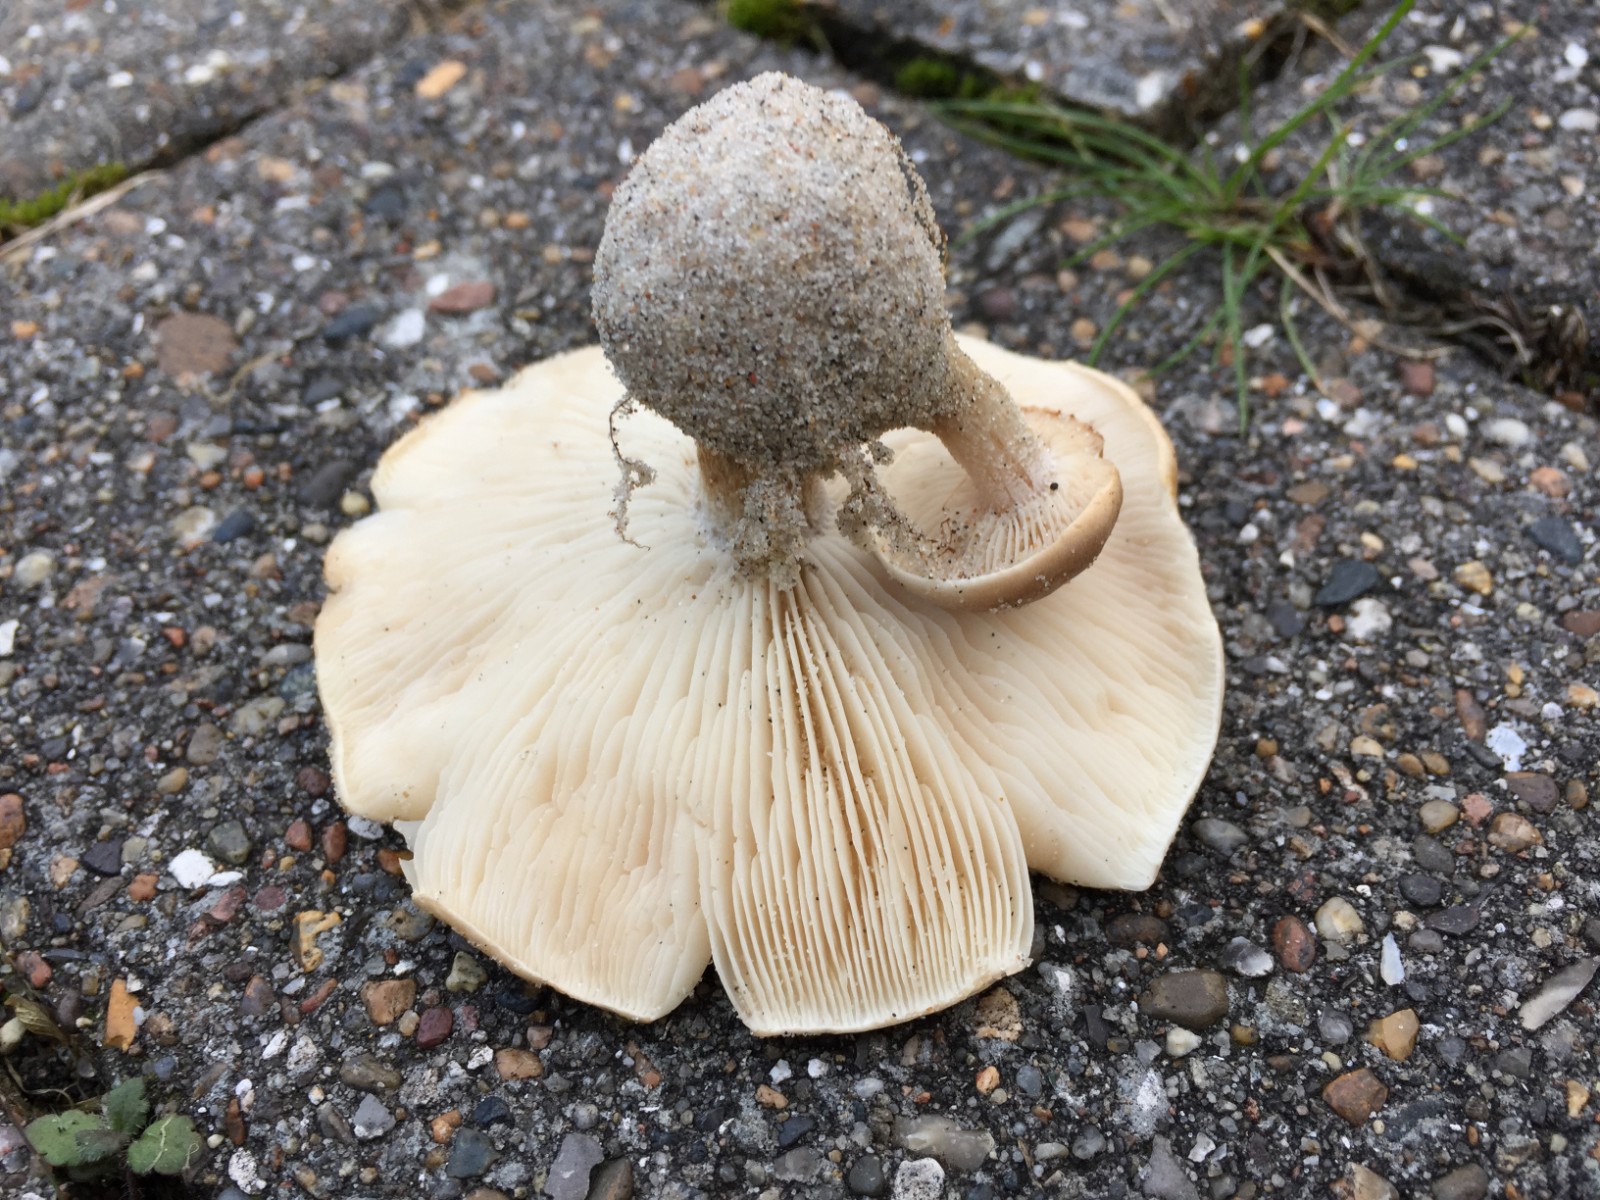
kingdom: Fungi
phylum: Basidiomycota
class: Agaricomycetes
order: Agaricales
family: Tricholomataceae
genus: Melanoleuca
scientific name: Melanoleuca polioleuca
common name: almindelig munkehat
